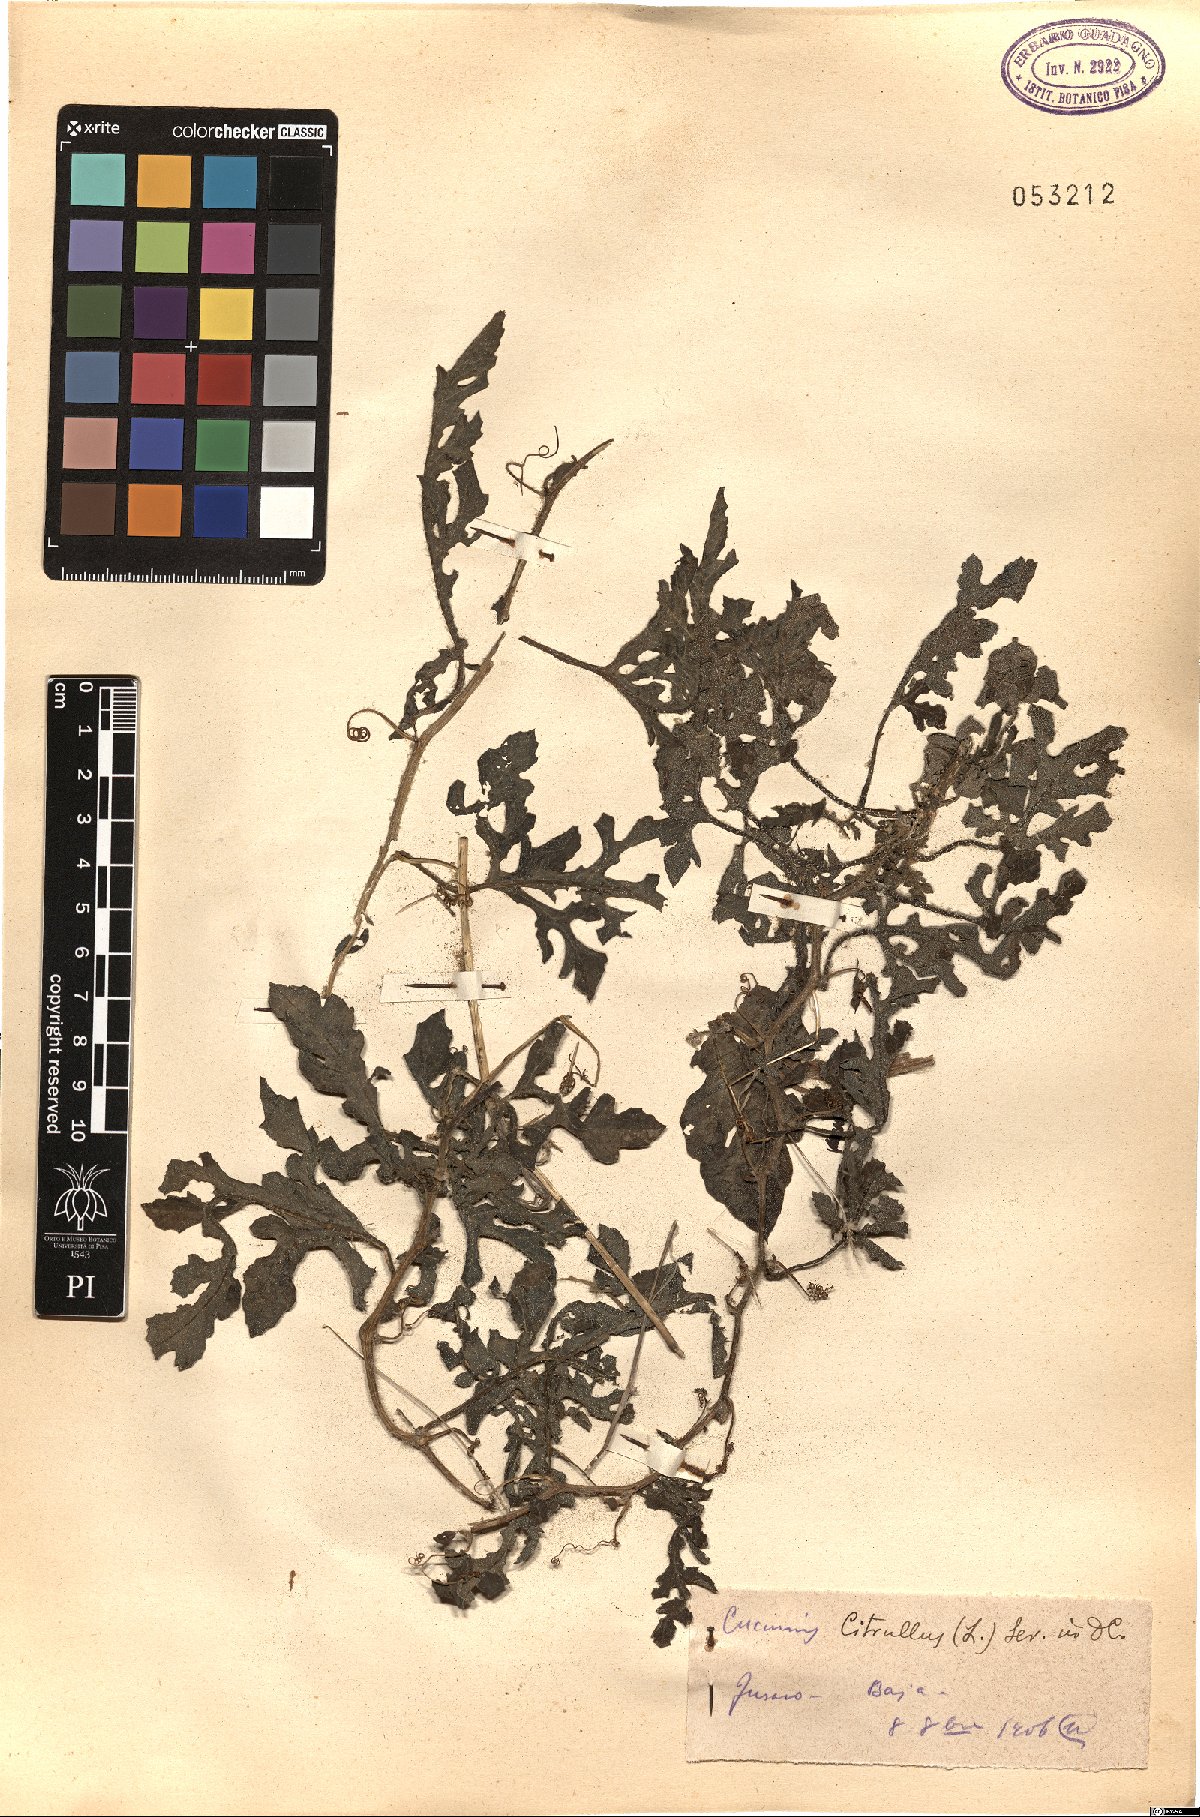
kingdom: Plantae
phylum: Tracheophyta
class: Magnoliopsida
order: Cucurbitales
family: Cucurbitaceae
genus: Citrullus
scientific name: Citrullus lanatus
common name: Watermelon
